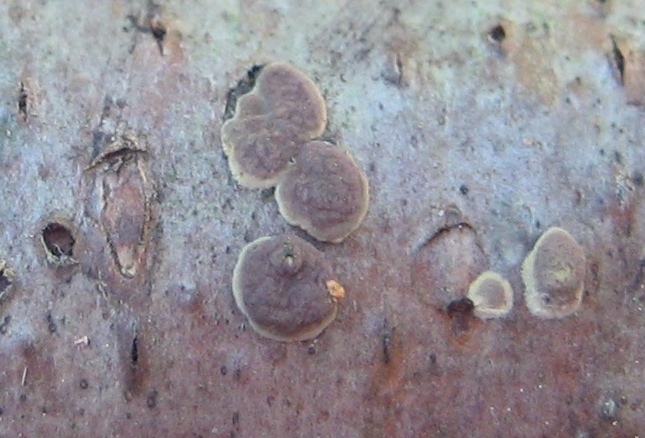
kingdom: Fungi
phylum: Ascomycota
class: Sordariomycetes
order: Xylariales
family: Hypoxylaceae
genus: Hypoxylon
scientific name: Hypoxylon fuscum
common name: kegleformet kulbær
